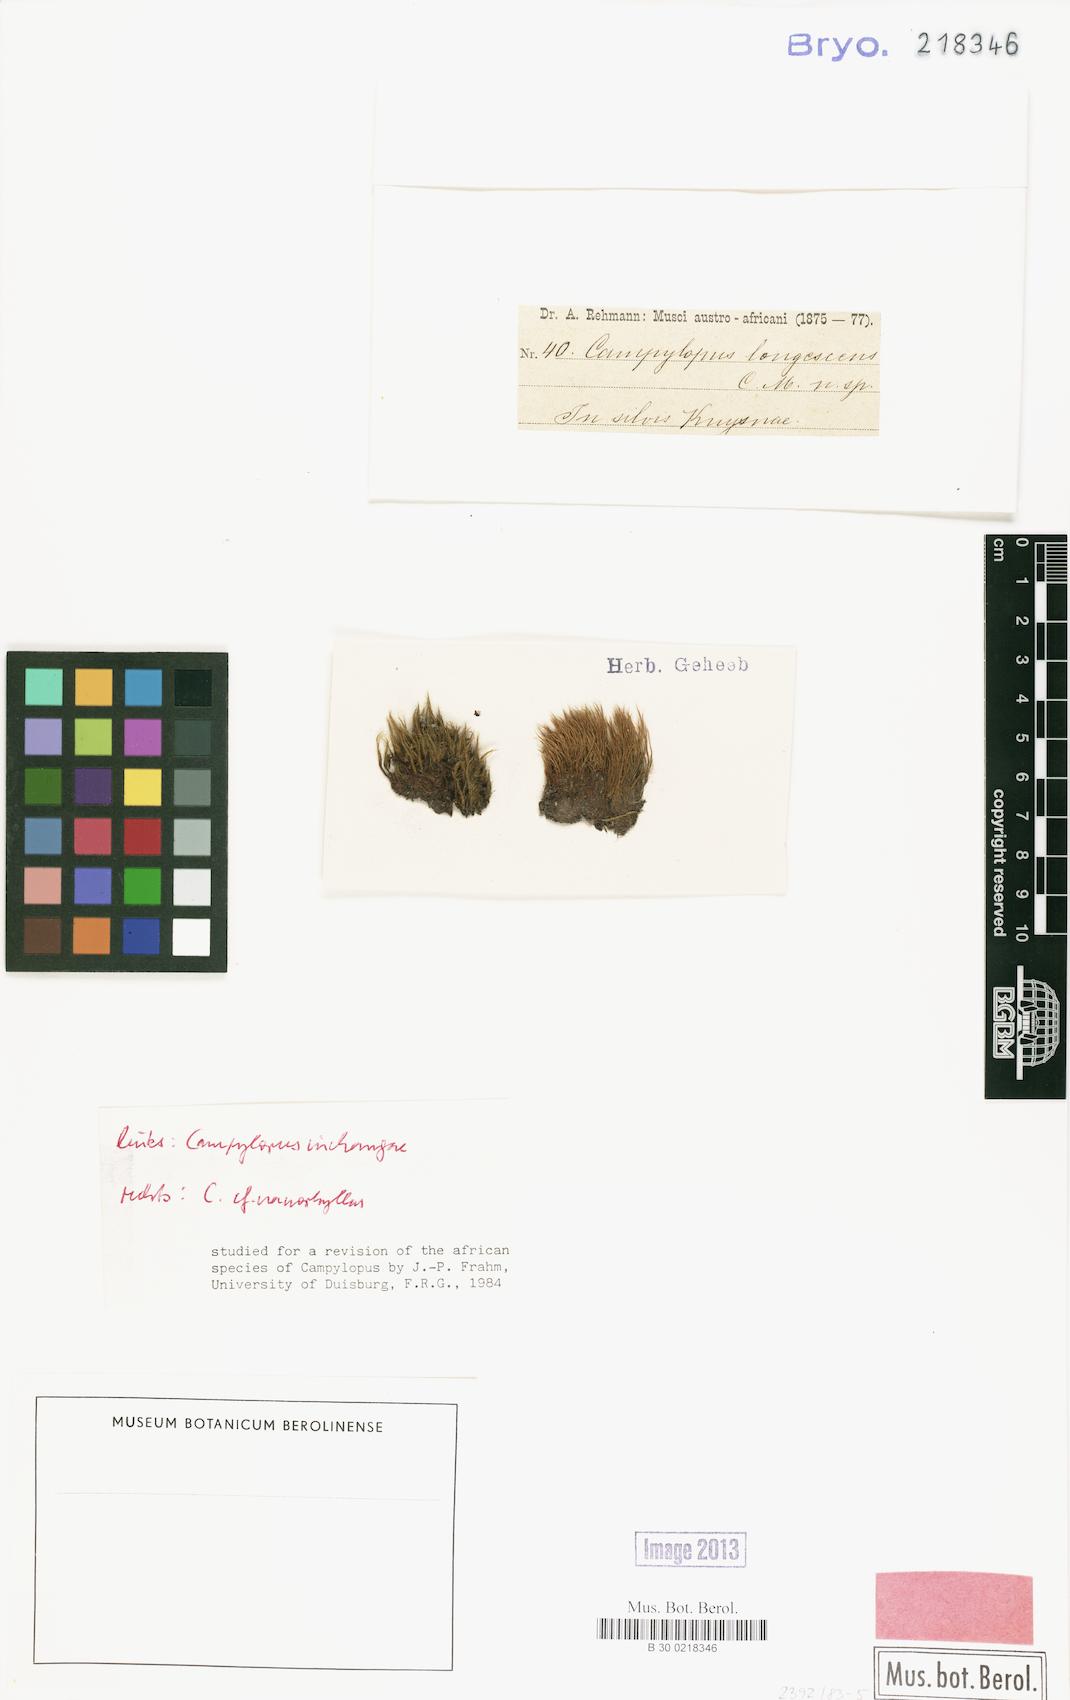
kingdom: Plantae
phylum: Bryophyta
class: Bryopsida
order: Dicranales
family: Leucobryaceae
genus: Campylopus
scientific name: Campylopus nanophyllus
